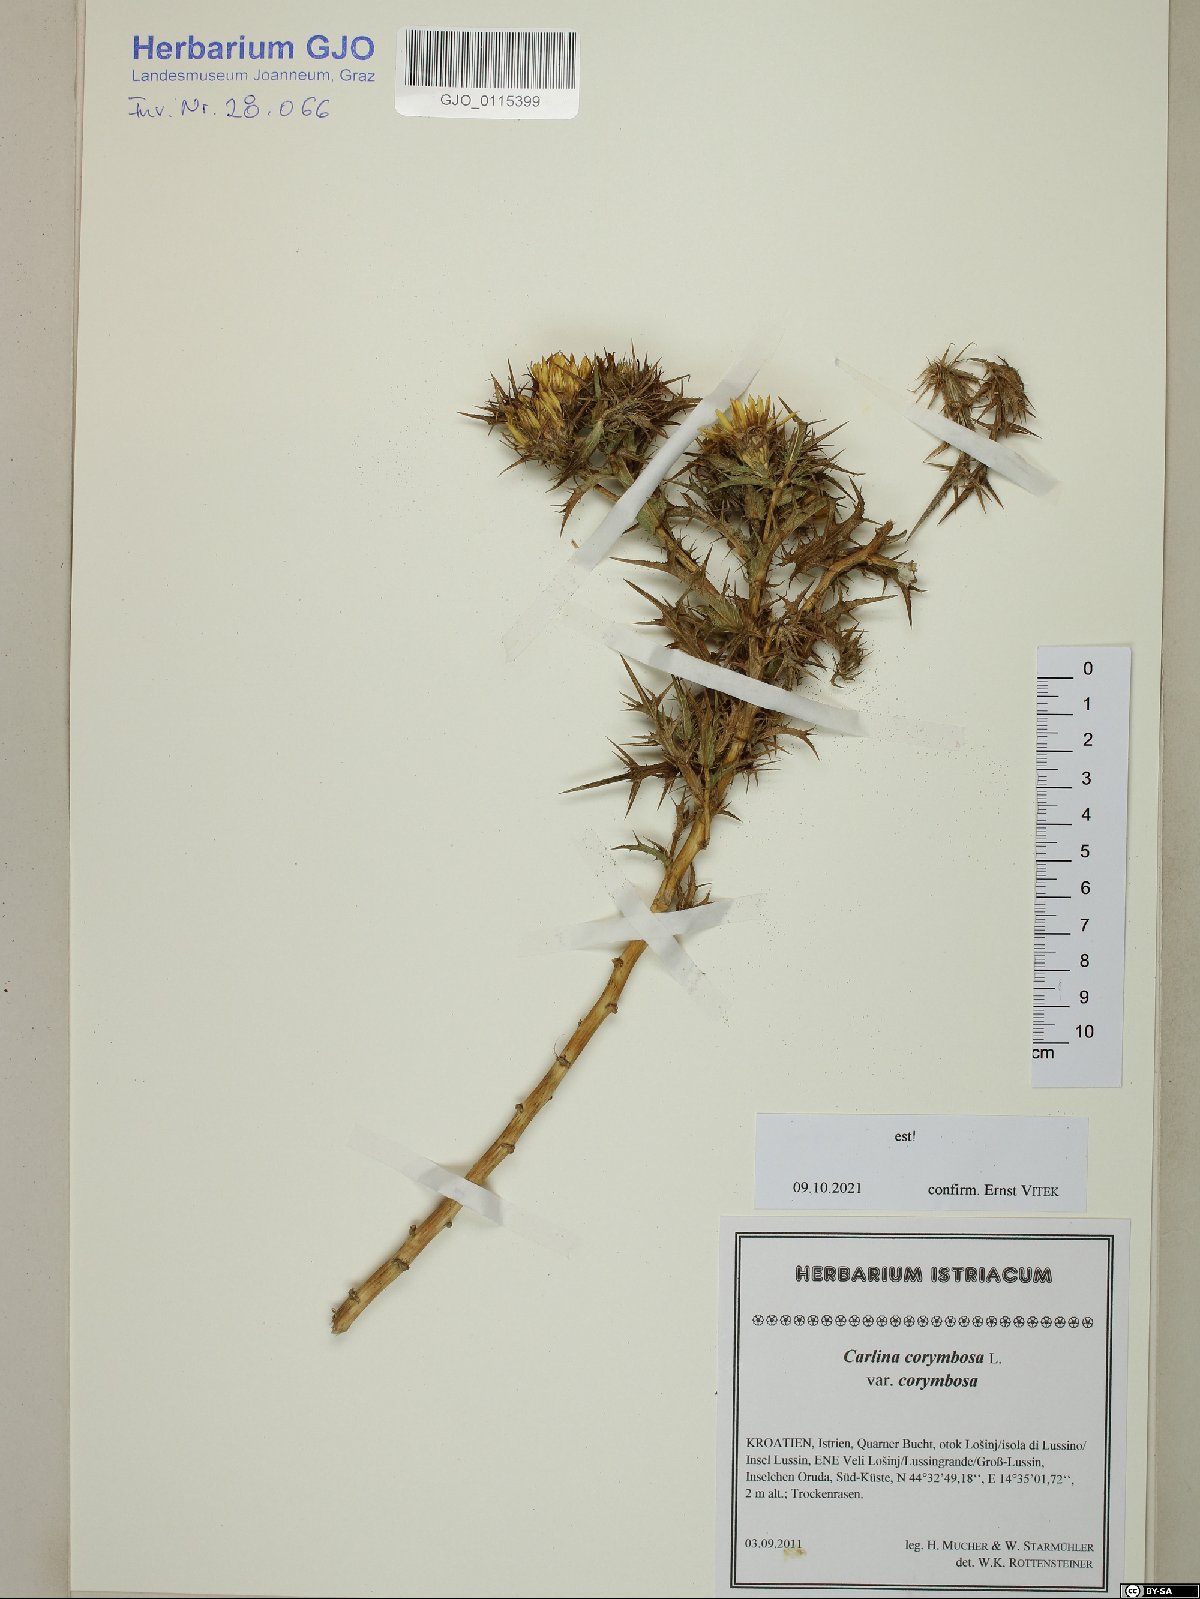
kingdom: Plantae
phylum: Tracheophyta
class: Magnoliopsida
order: Asterales
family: Asteraceae
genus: Carlina
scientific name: Carlina corymbosa
